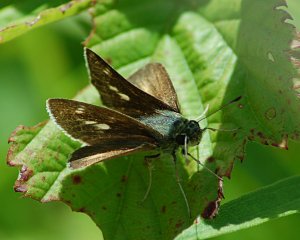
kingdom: Animalia
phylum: Arthropoda
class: Insecta
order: Lepidoptera
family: Hesperiidae
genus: Polites
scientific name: Polites egeremet
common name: Northern Broken-Dash
